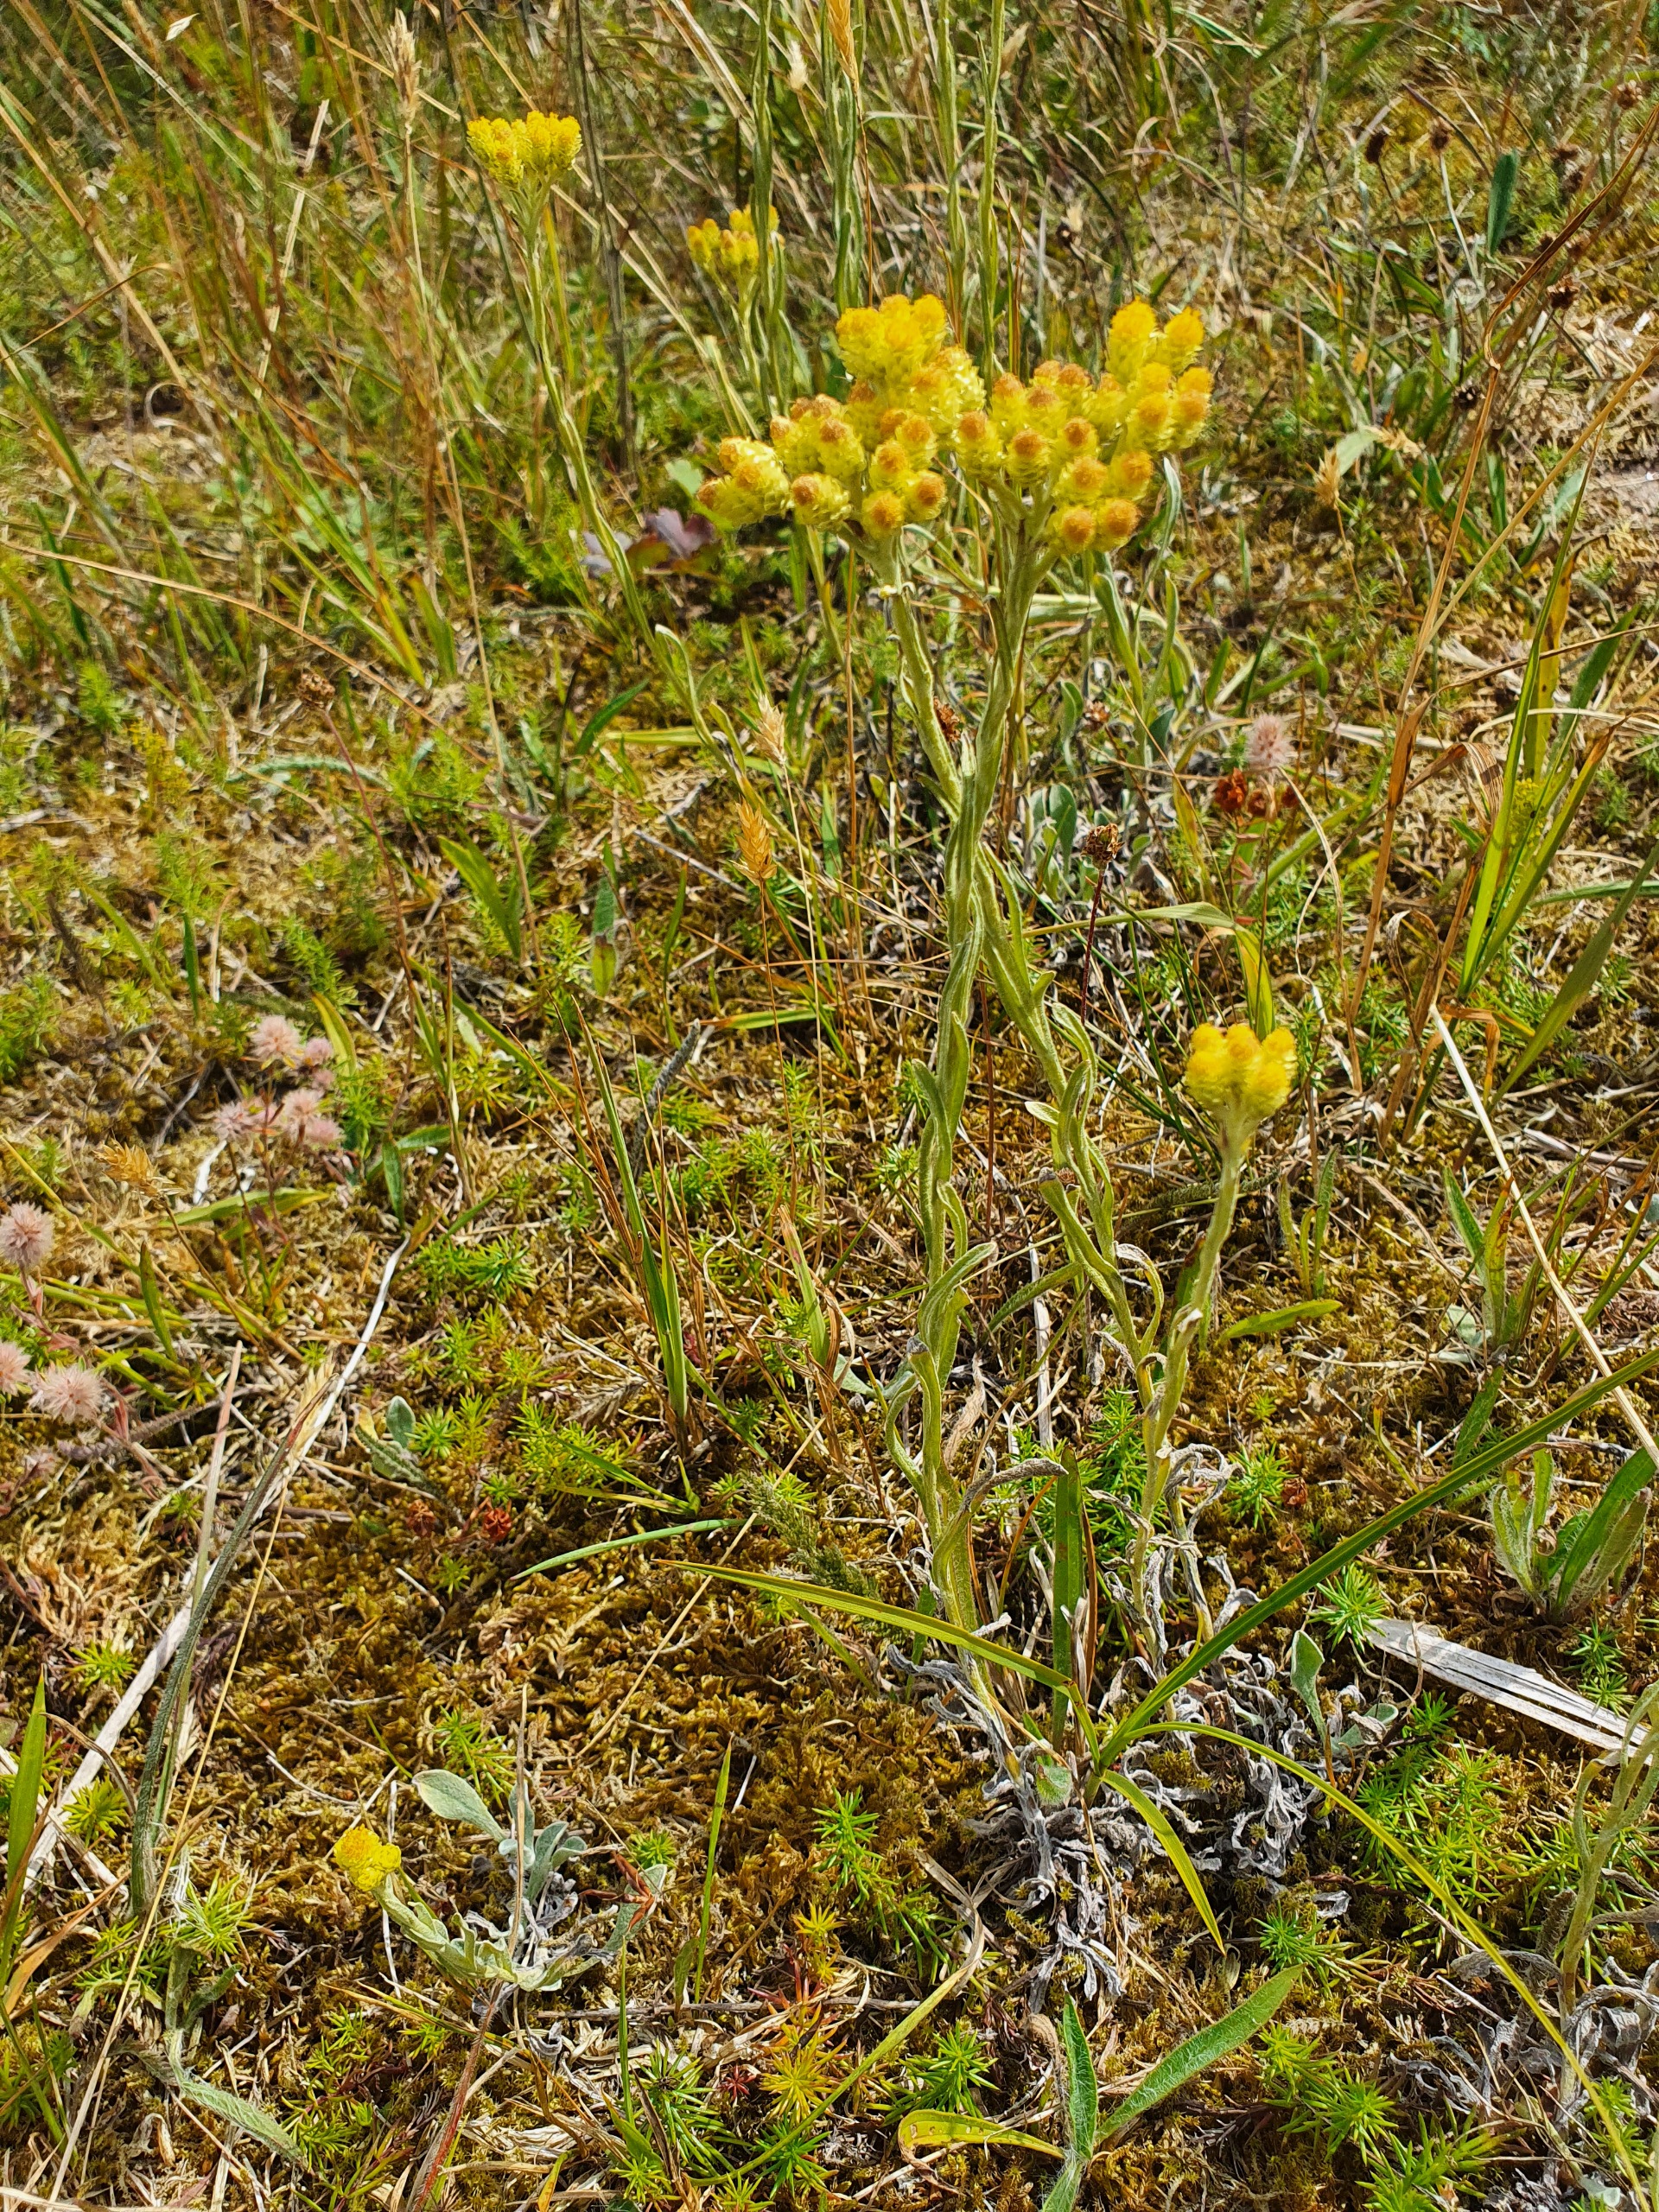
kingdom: Plantae
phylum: Tracheophyta
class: Magnoliopsida
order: Asterales
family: Asteraceae
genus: Helichrysum
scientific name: Helichrysum arenarium
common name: Gul evighedsblomst
